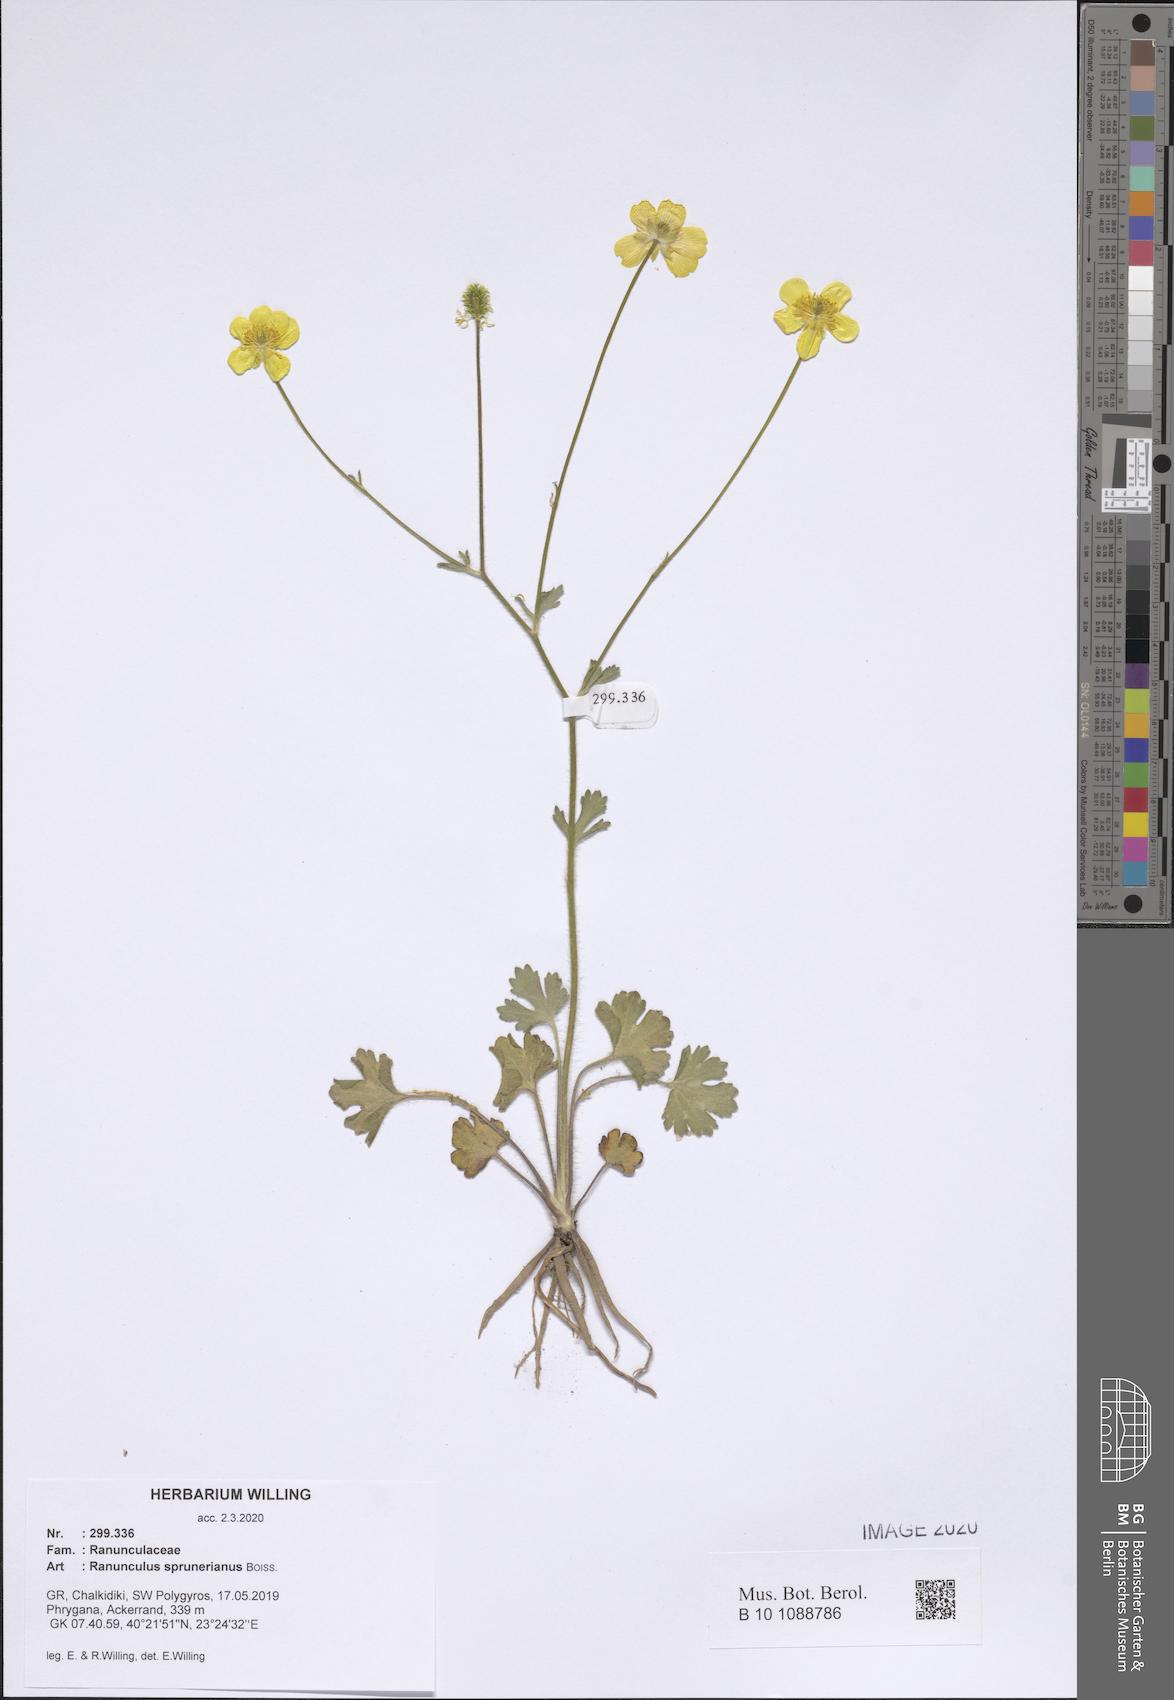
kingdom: Plantae
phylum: Tracheophyta
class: Magnoliopsida
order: Ranunculales
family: Ranunculaceae
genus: Ranunculus
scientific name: Ranunculus sprunerianus
